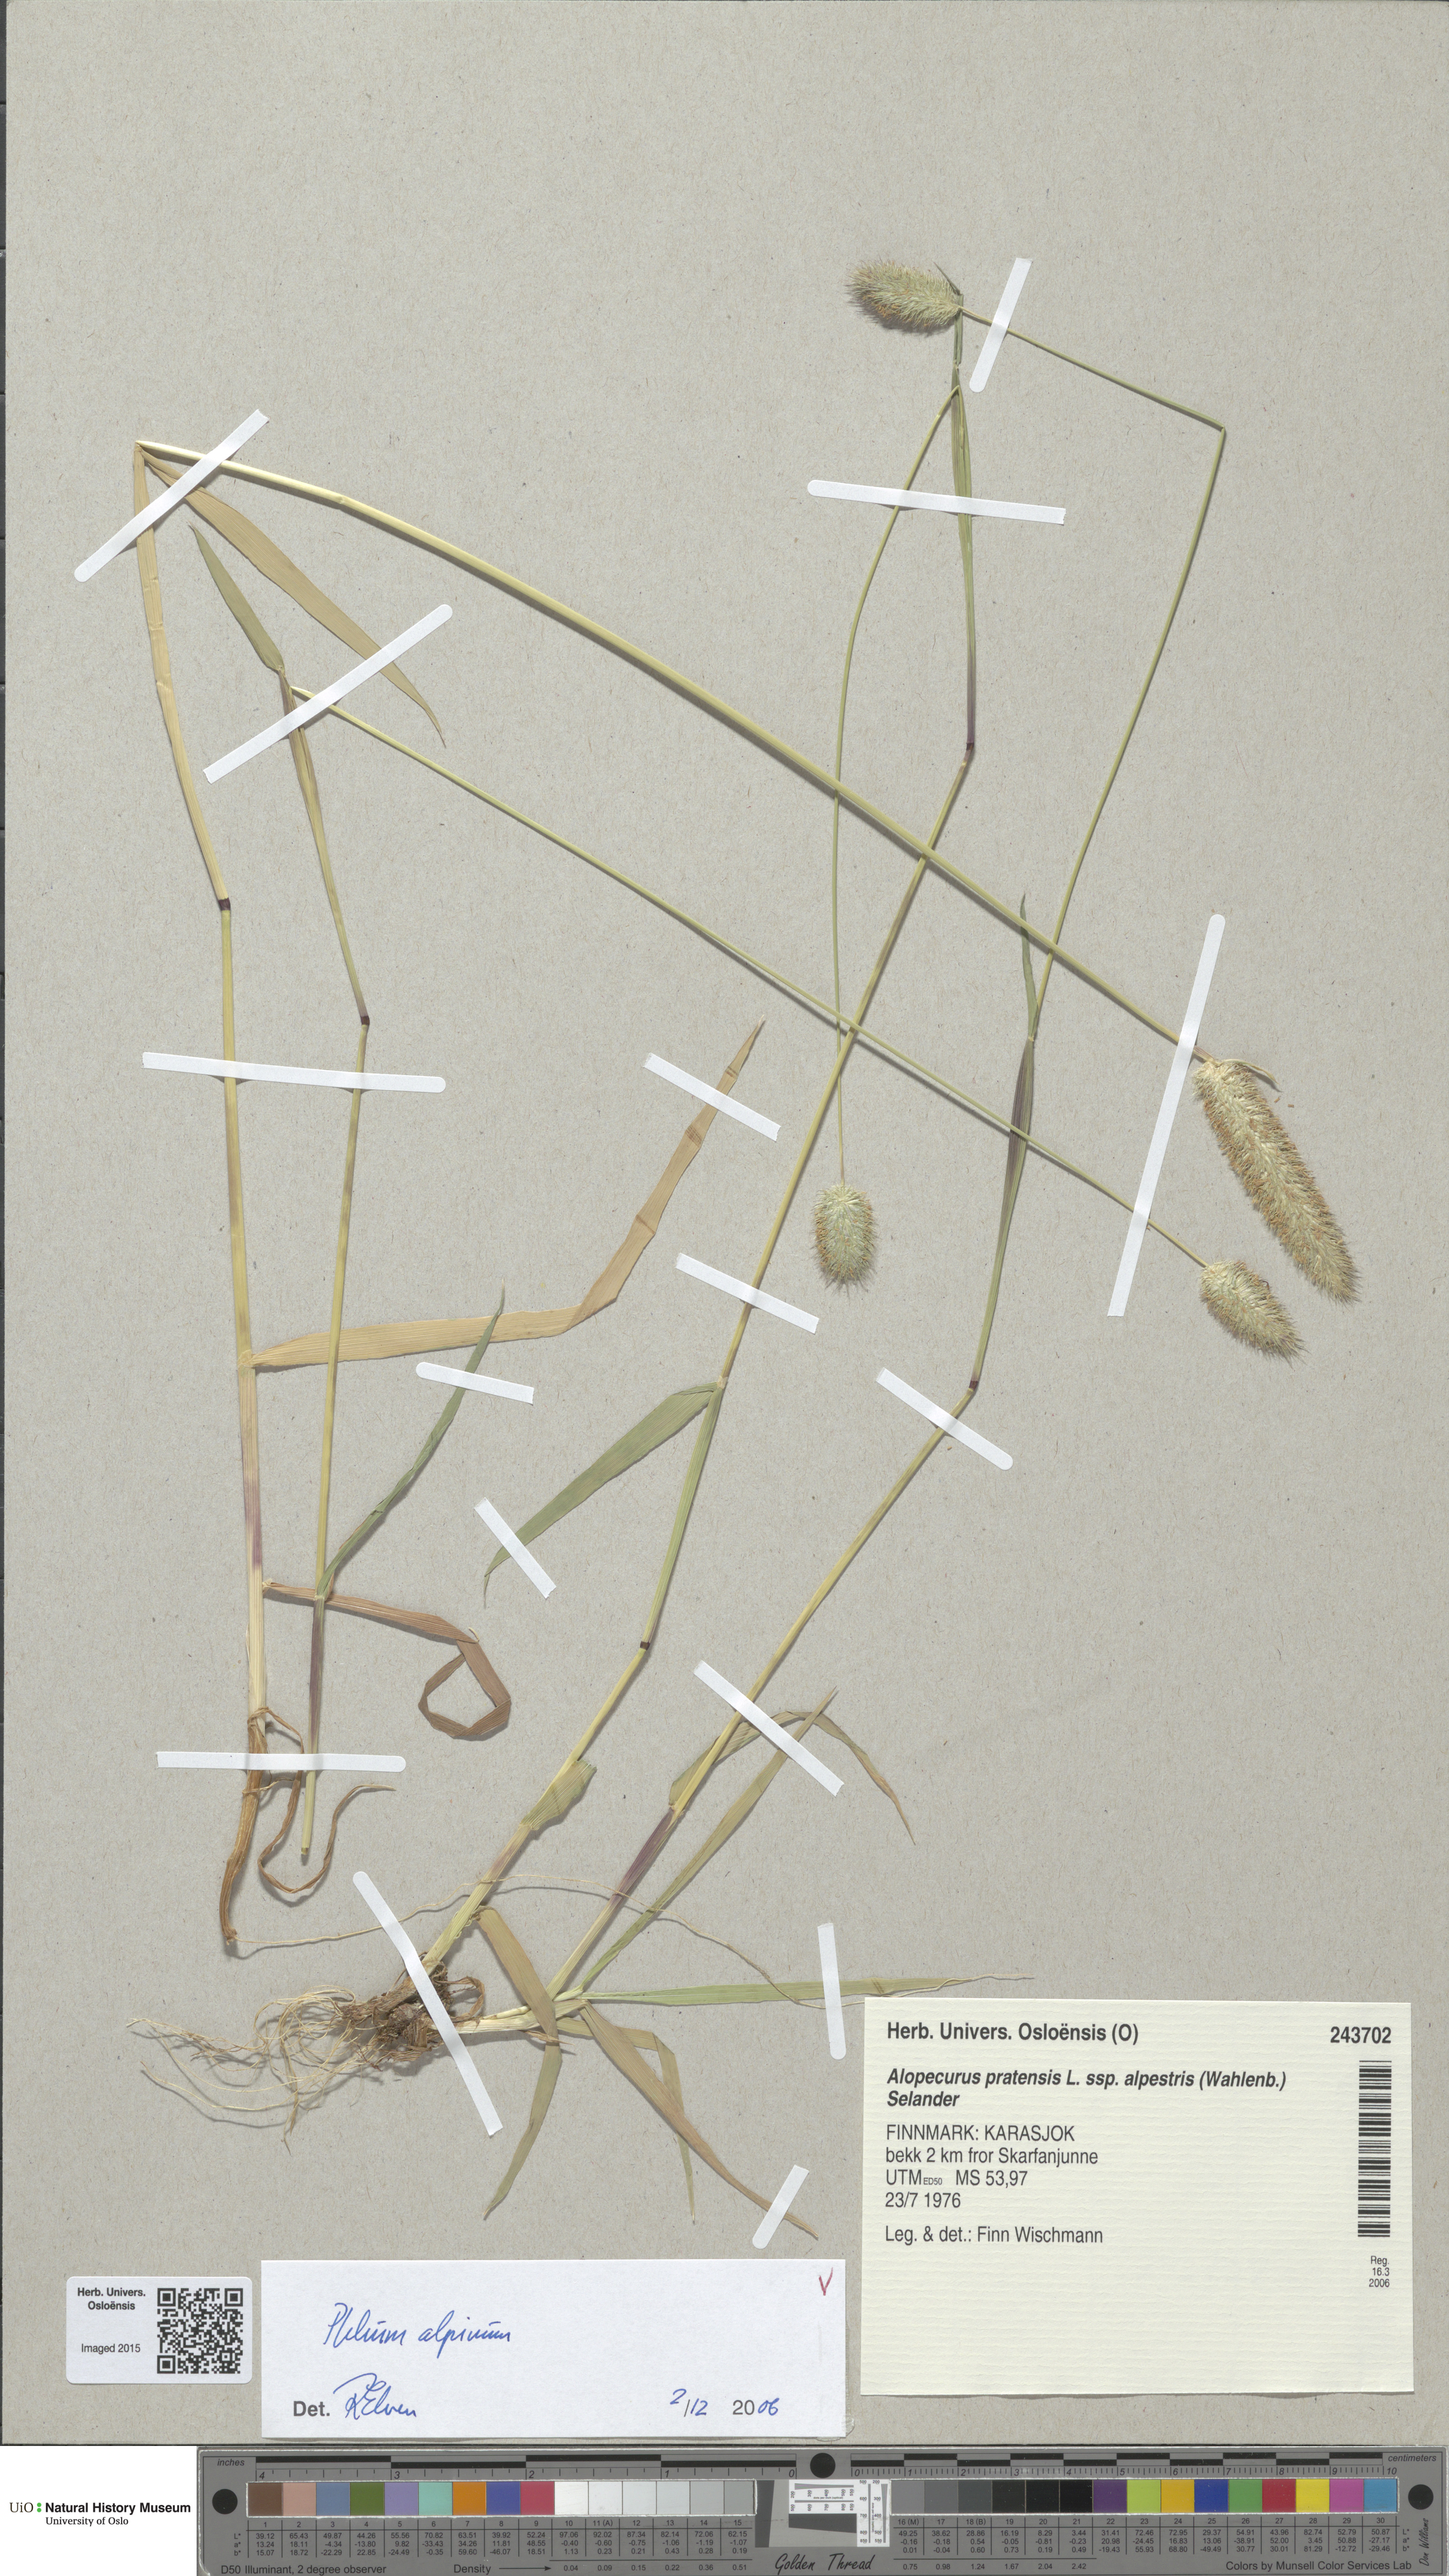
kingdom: Plantae
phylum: Tracheophyta
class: Liliopsida
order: Poales
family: Poaceae
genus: Phleum
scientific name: Phleum alpinum
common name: Alpine cat's-tail
